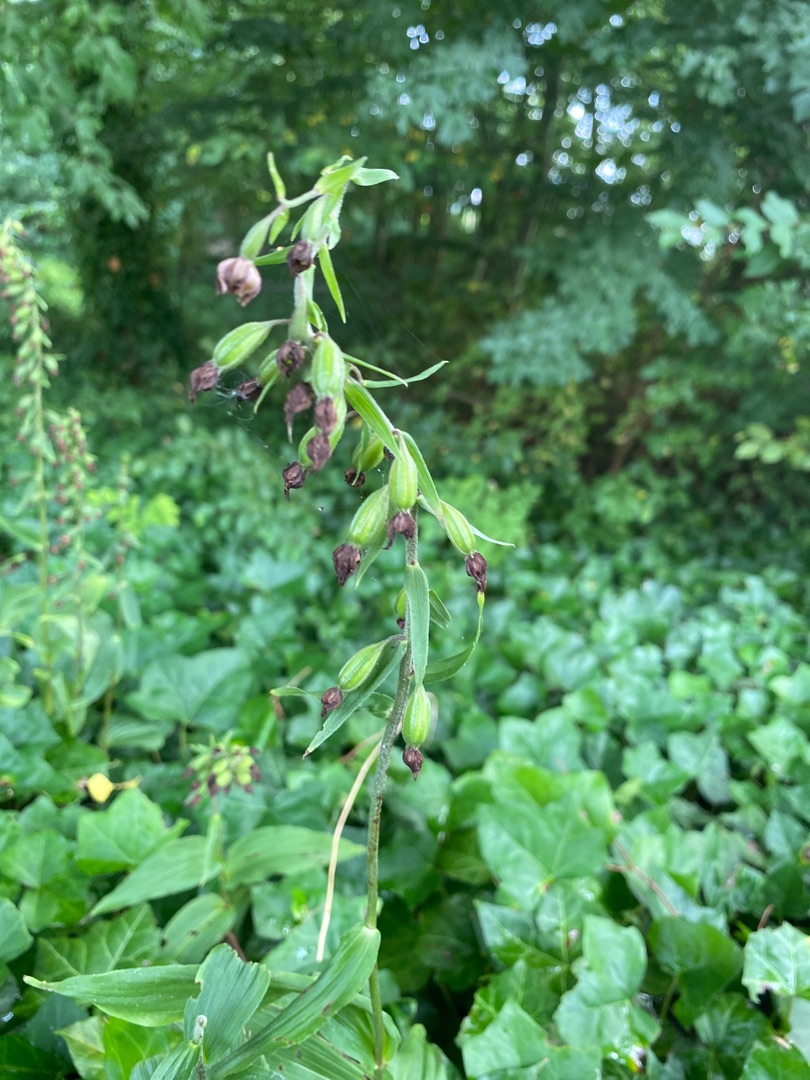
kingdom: Plantae
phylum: Tracheophyta
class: Liliopsida
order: Asparagales
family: Orchidaceae
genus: Epipactis
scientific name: Epipactis helleborine
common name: Skov-hullæbe
